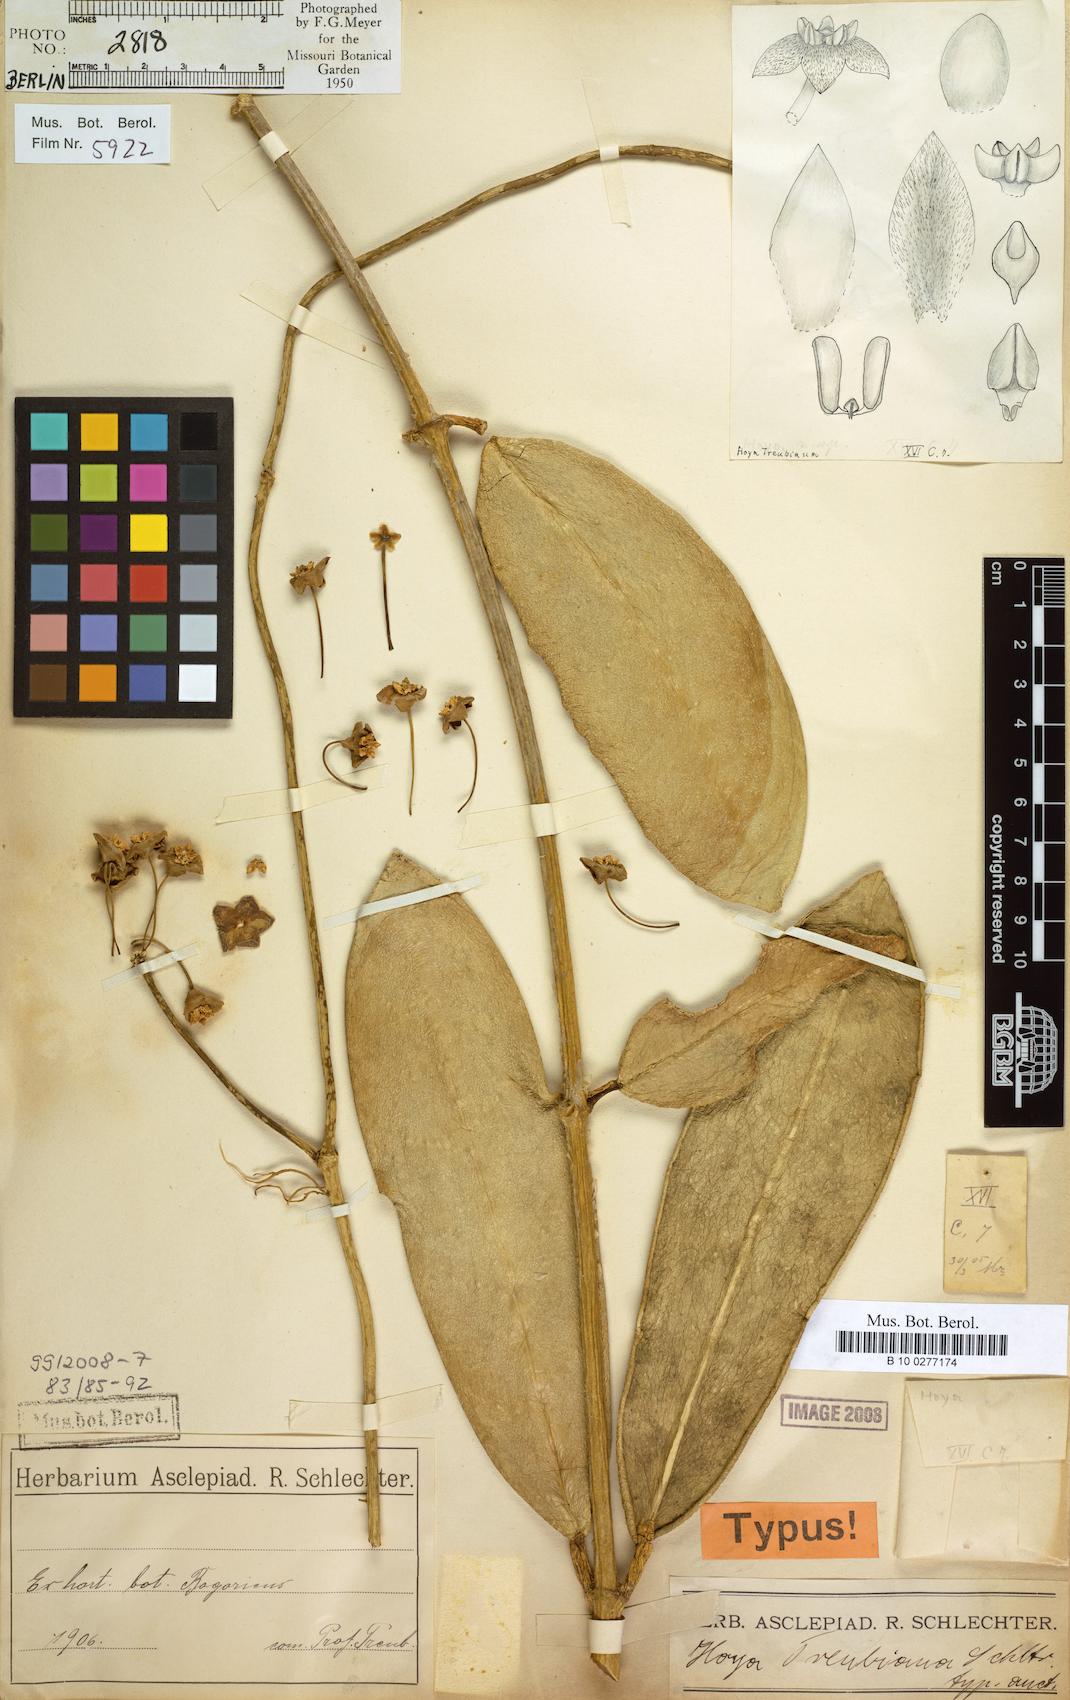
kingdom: Plantae
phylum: Tracheophyta
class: Magnoliopsida
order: Gentianales
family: Apocynaceae
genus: Hoya
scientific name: Hoya meliflua
